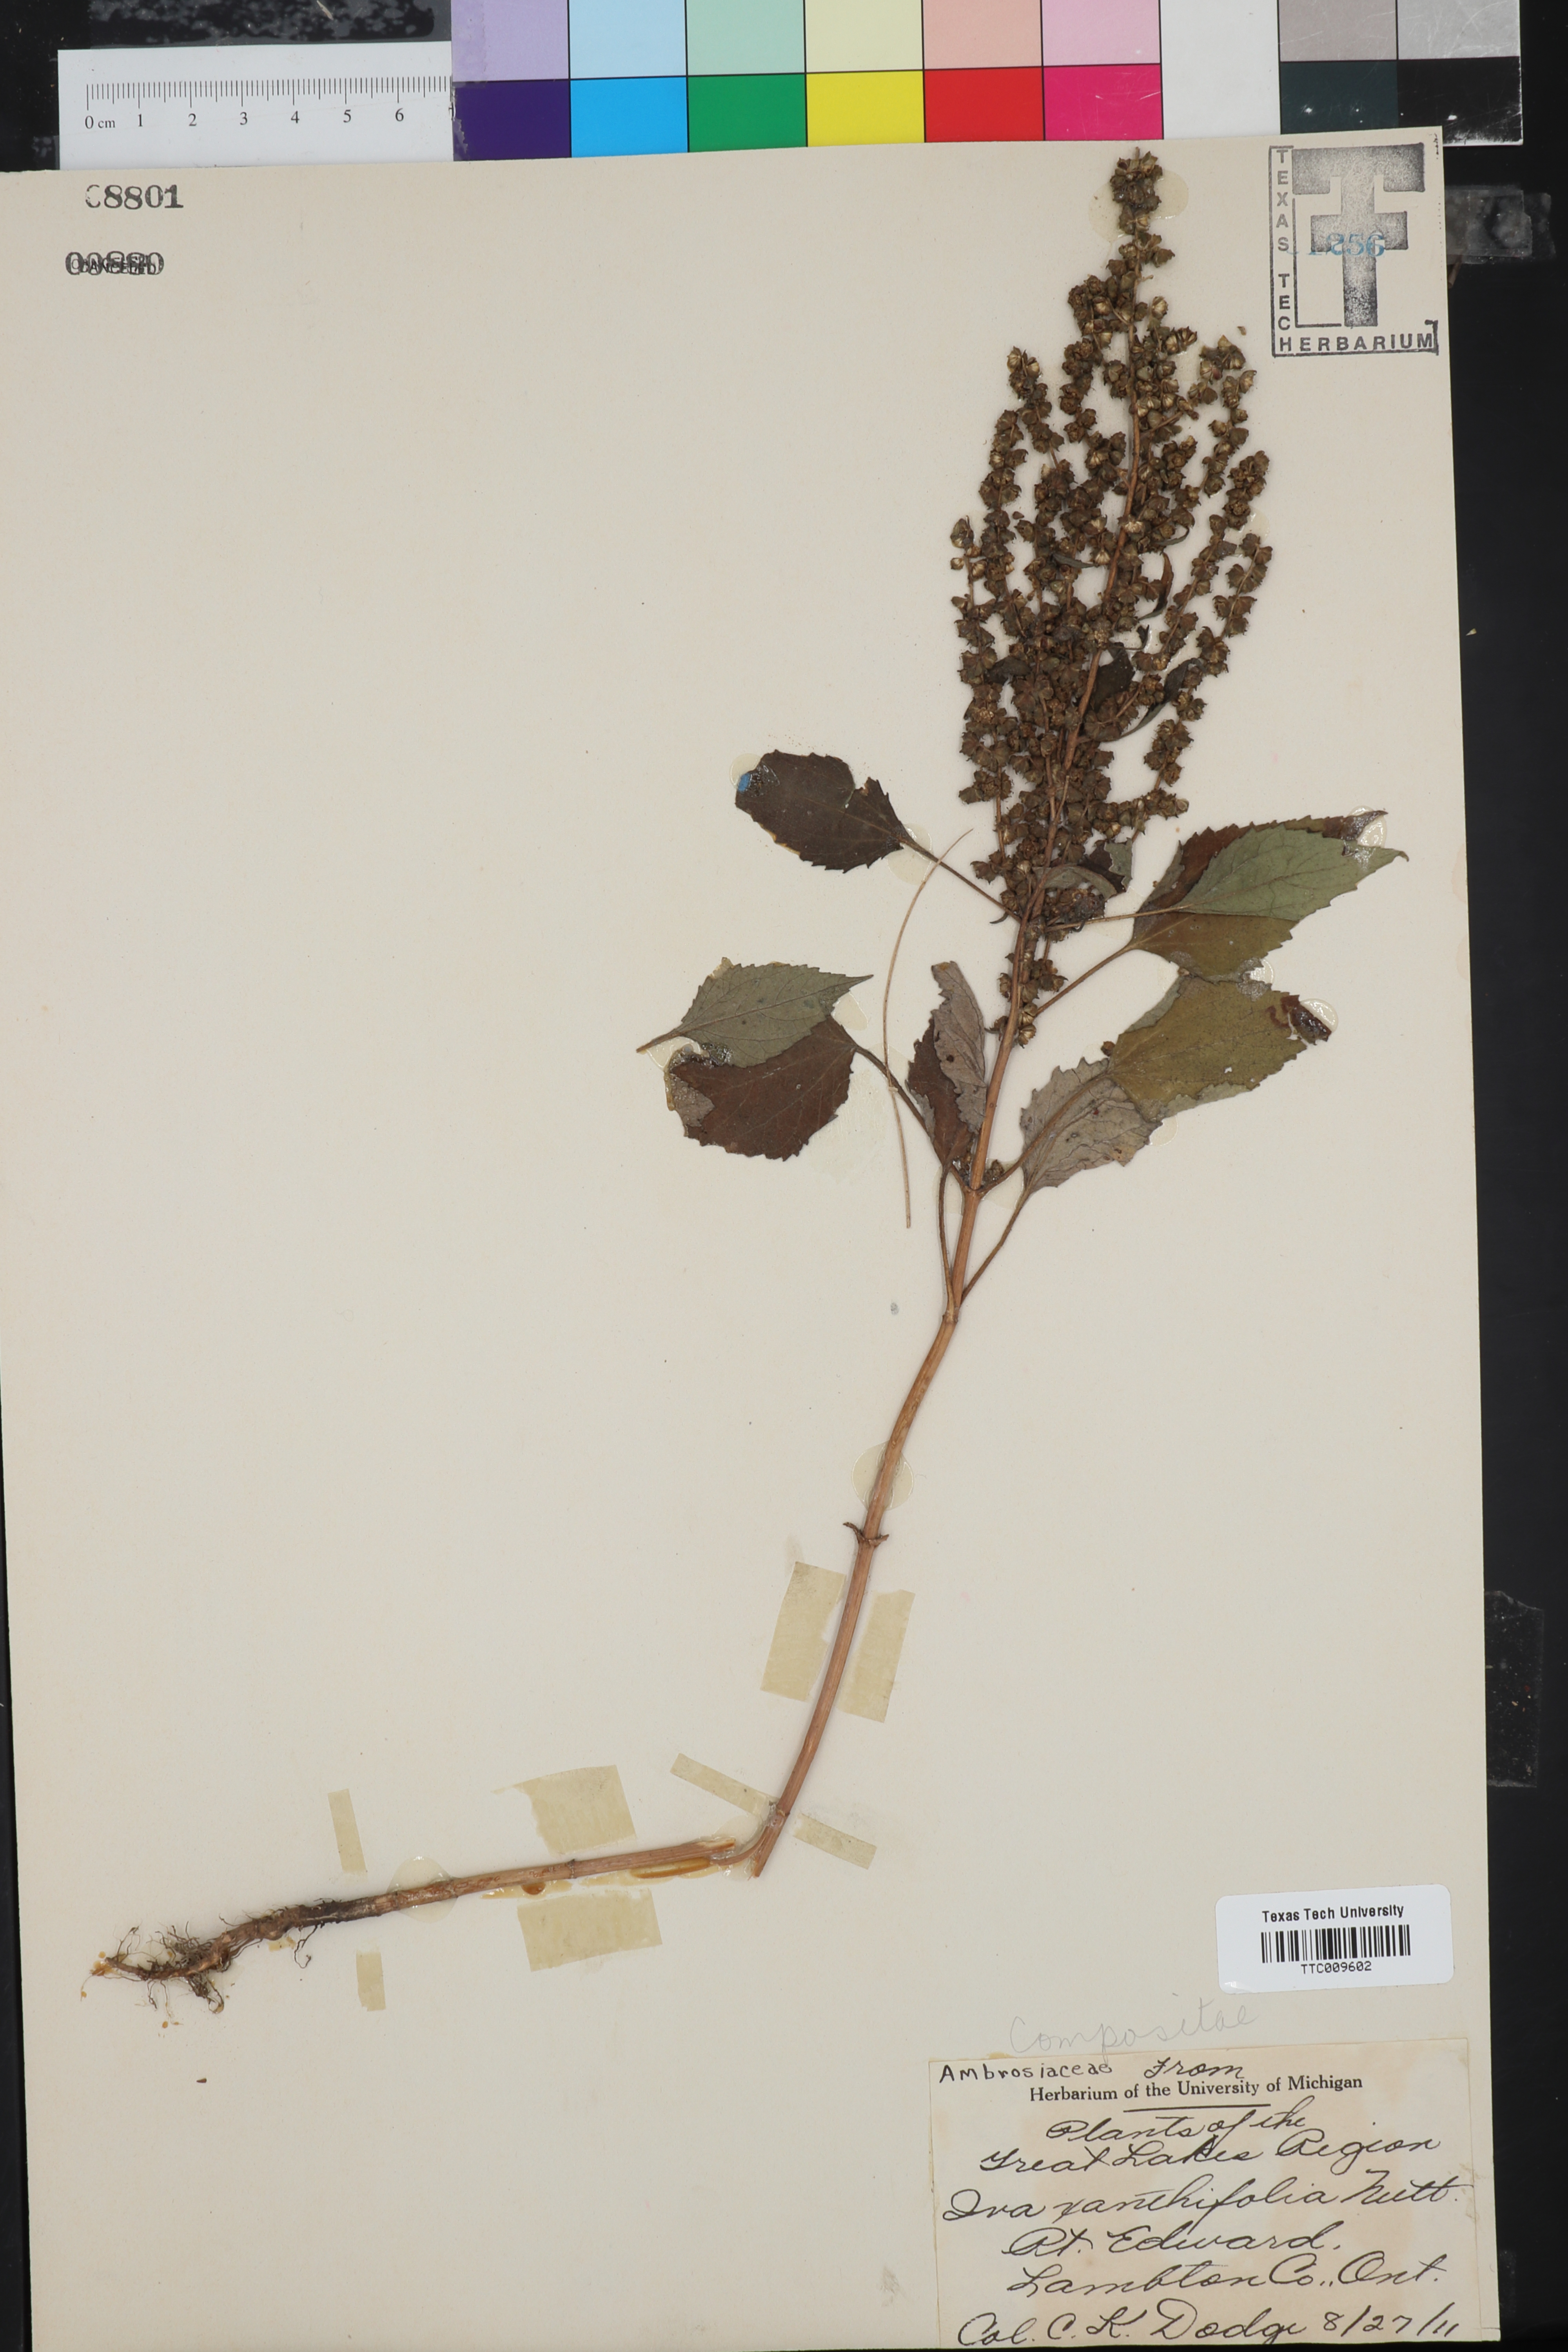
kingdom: Plantae
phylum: Tracheophyta
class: Magnoliopsida
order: Asterales
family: Asteraceae
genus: Cyclachaena
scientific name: Cyclachaena xanthiifolia
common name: Giant sumpweed
